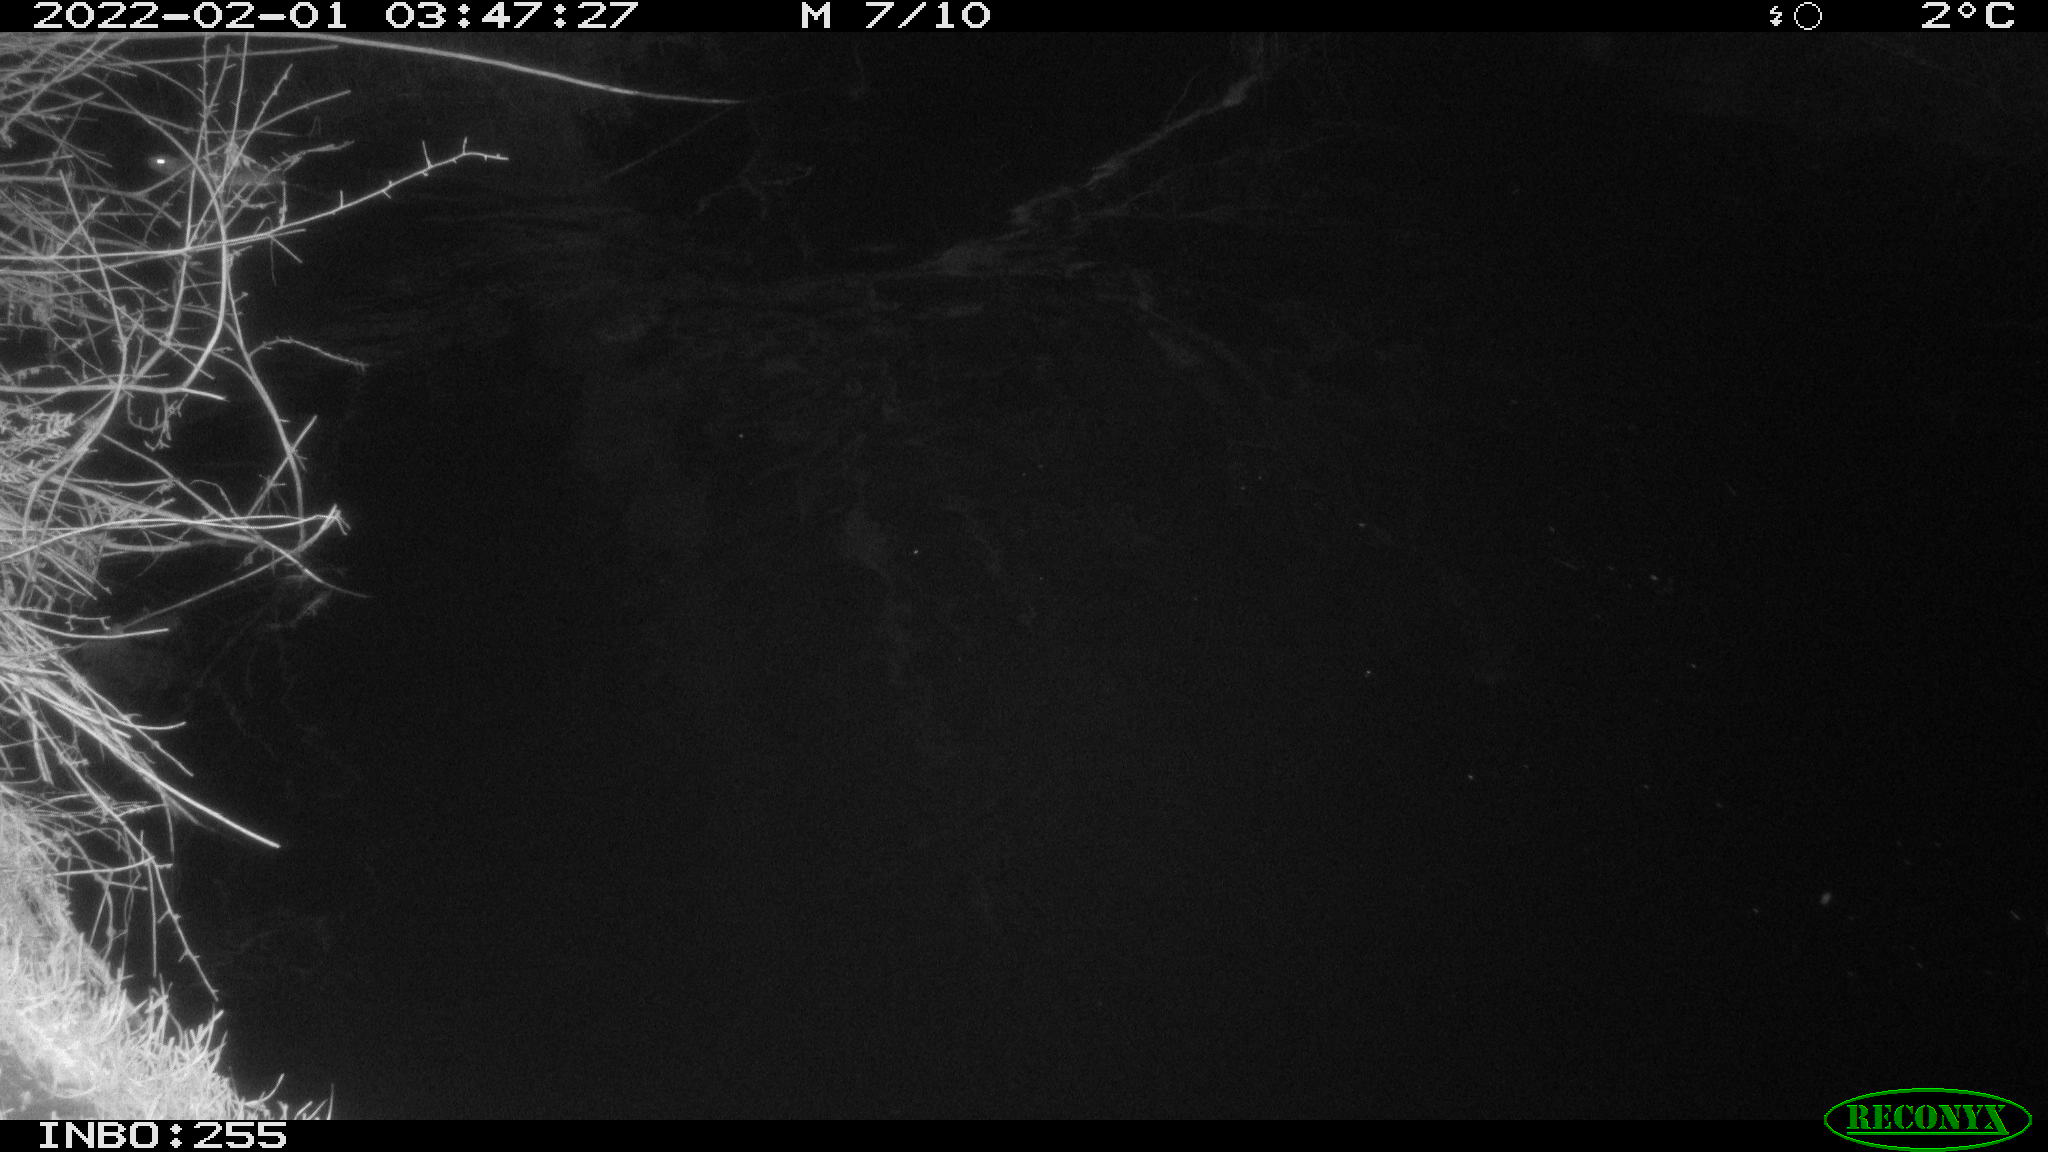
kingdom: Animalia
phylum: Chordata
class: Mammalia
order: Rodentia
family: Muridae
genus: Rattus
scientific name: Rattus norvegicus
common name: Brown rat
